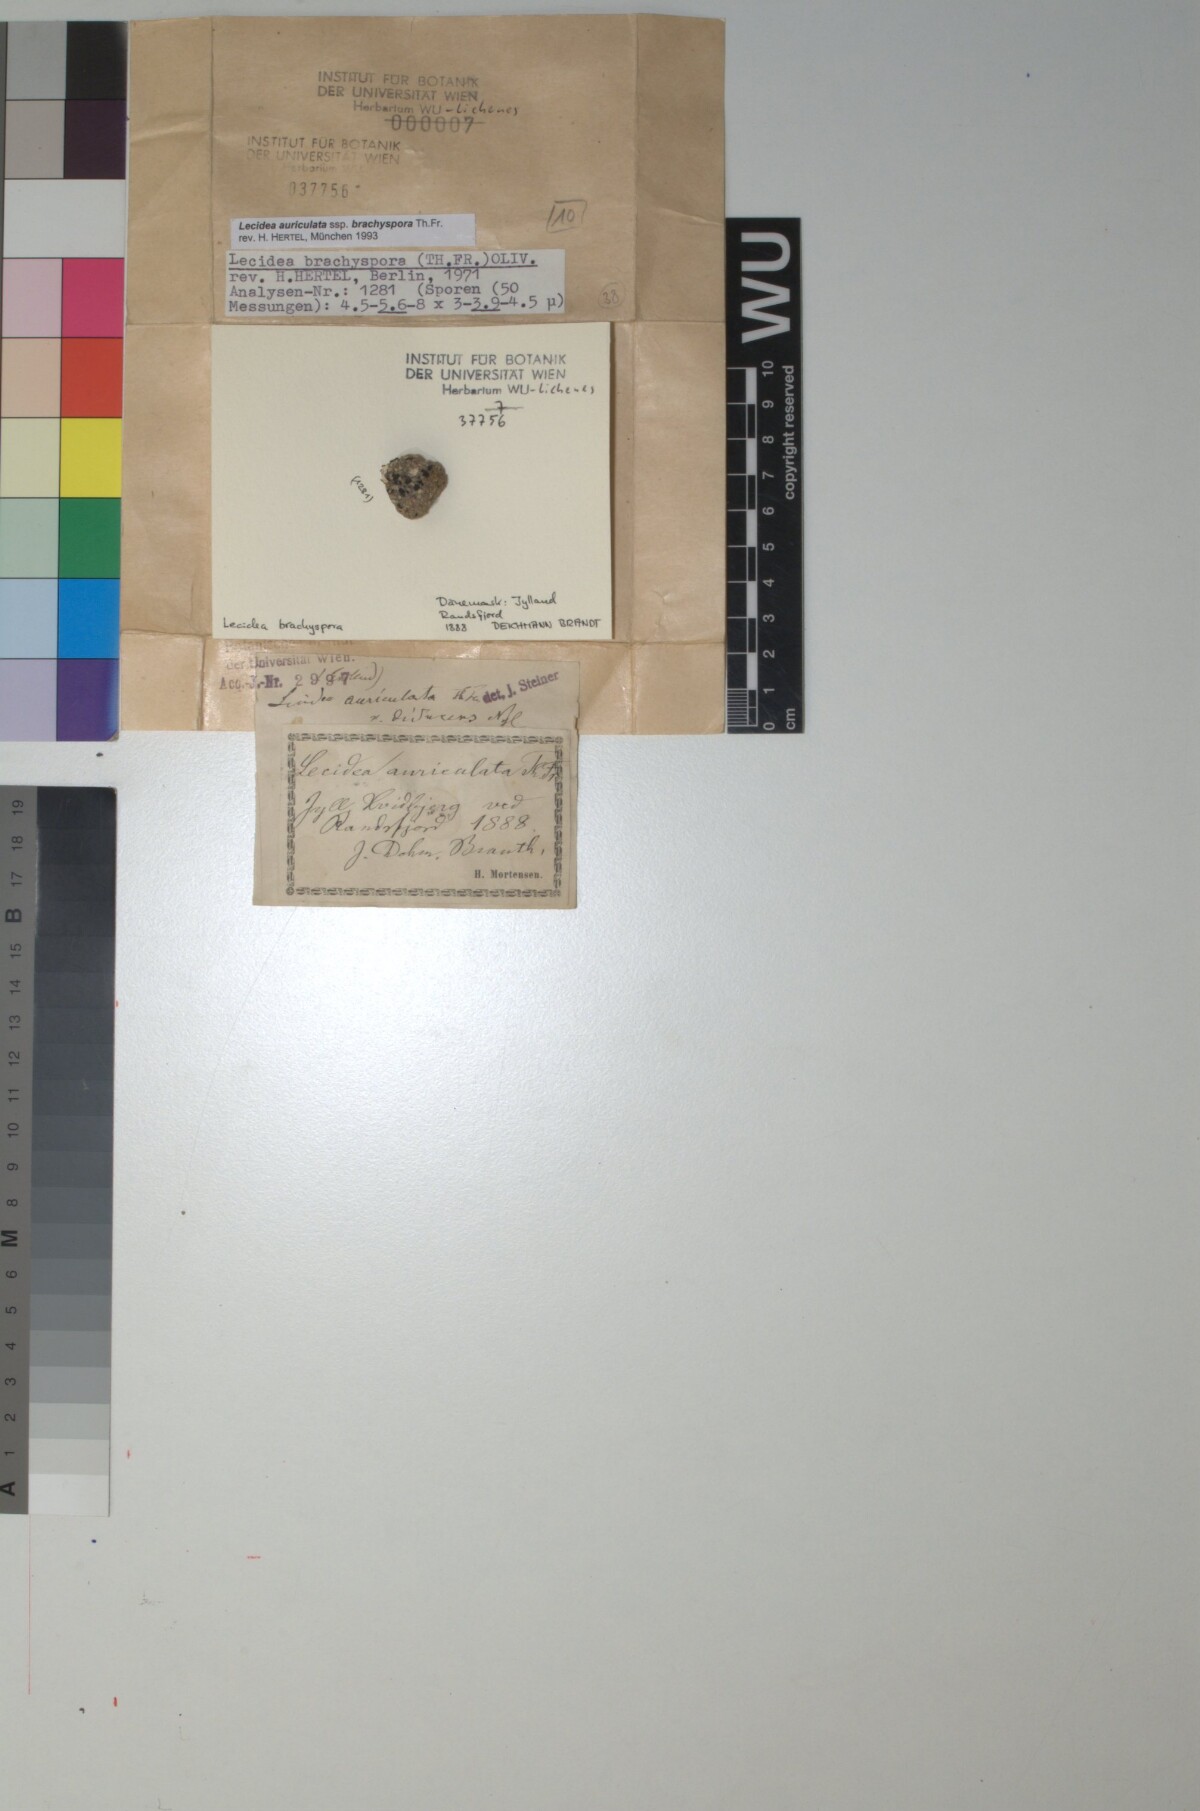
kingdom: Fungi
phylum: Ascomycota
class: Lecanoromycetes
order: Lecideales
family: Lecideaceae
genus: Lecidea
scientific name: Lecidea auriculata
